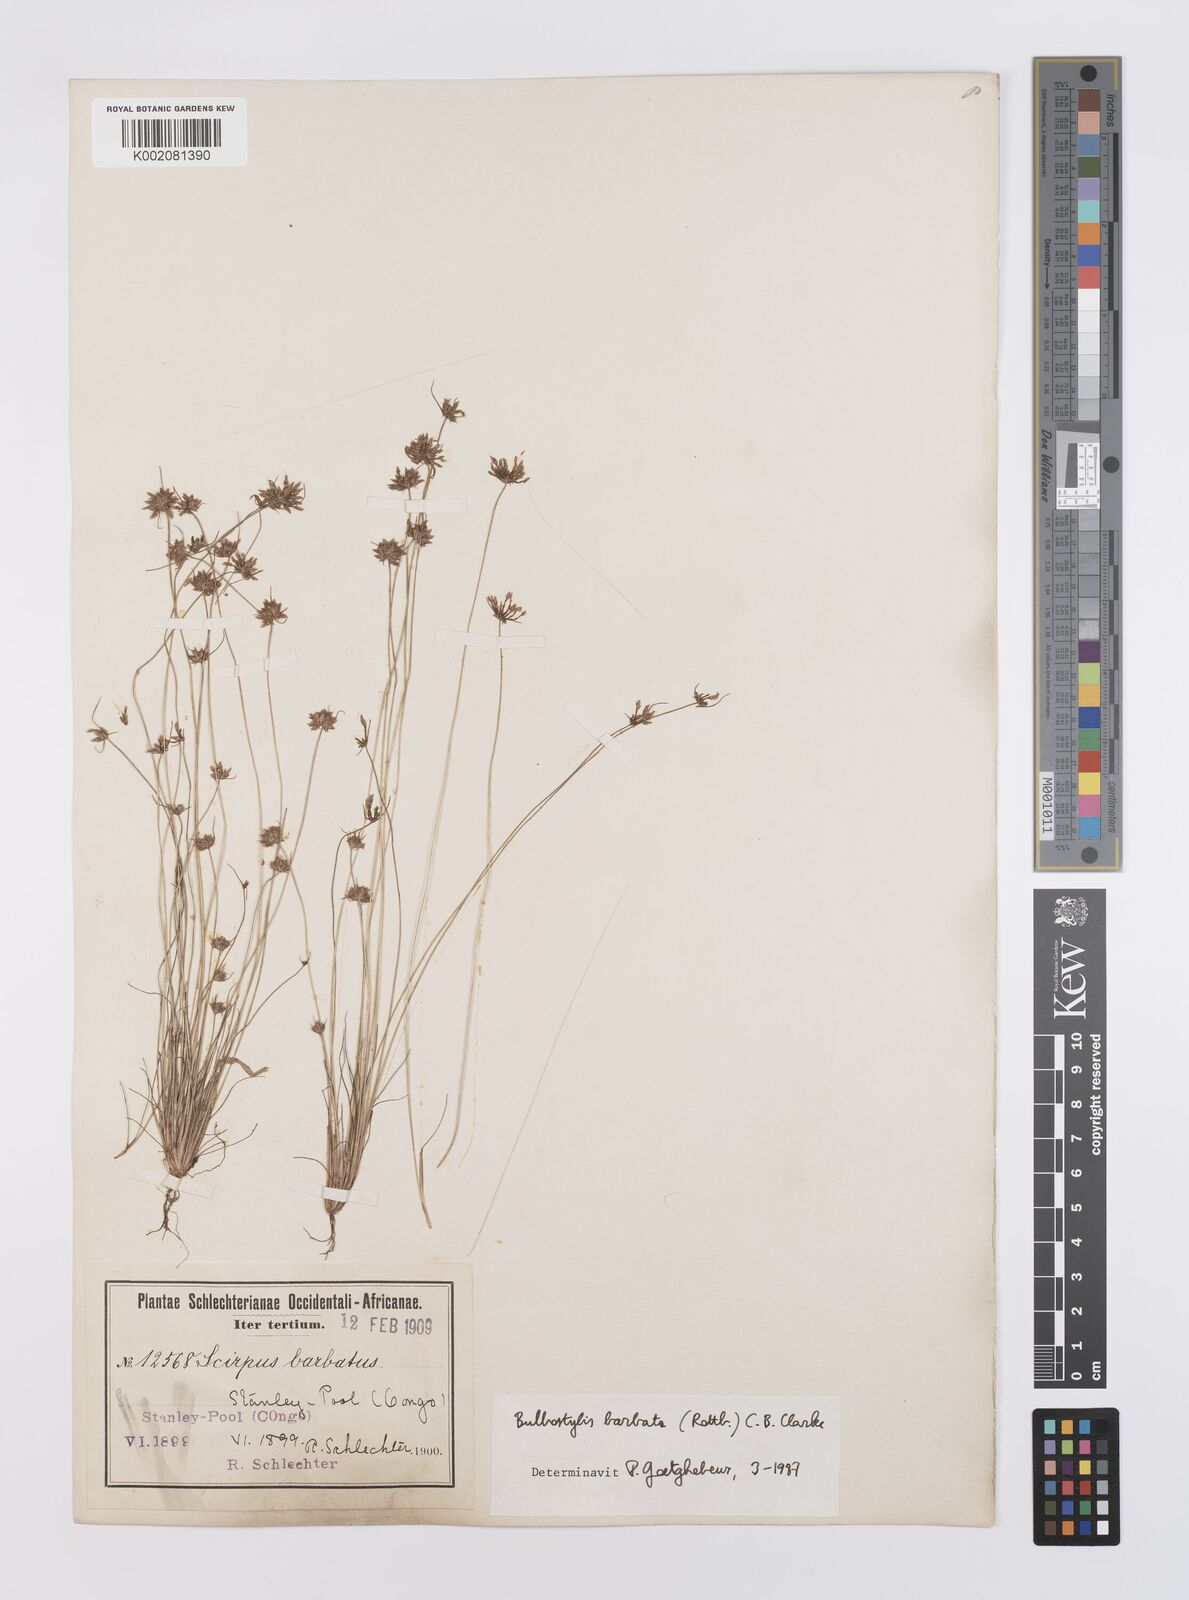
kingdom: Plantae
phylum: Tracheophyta
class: Liliopsida
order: Poales
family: Cyperaceae
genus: Bulbostylis
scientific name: Bulbostylis barbata
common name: Watergrass
